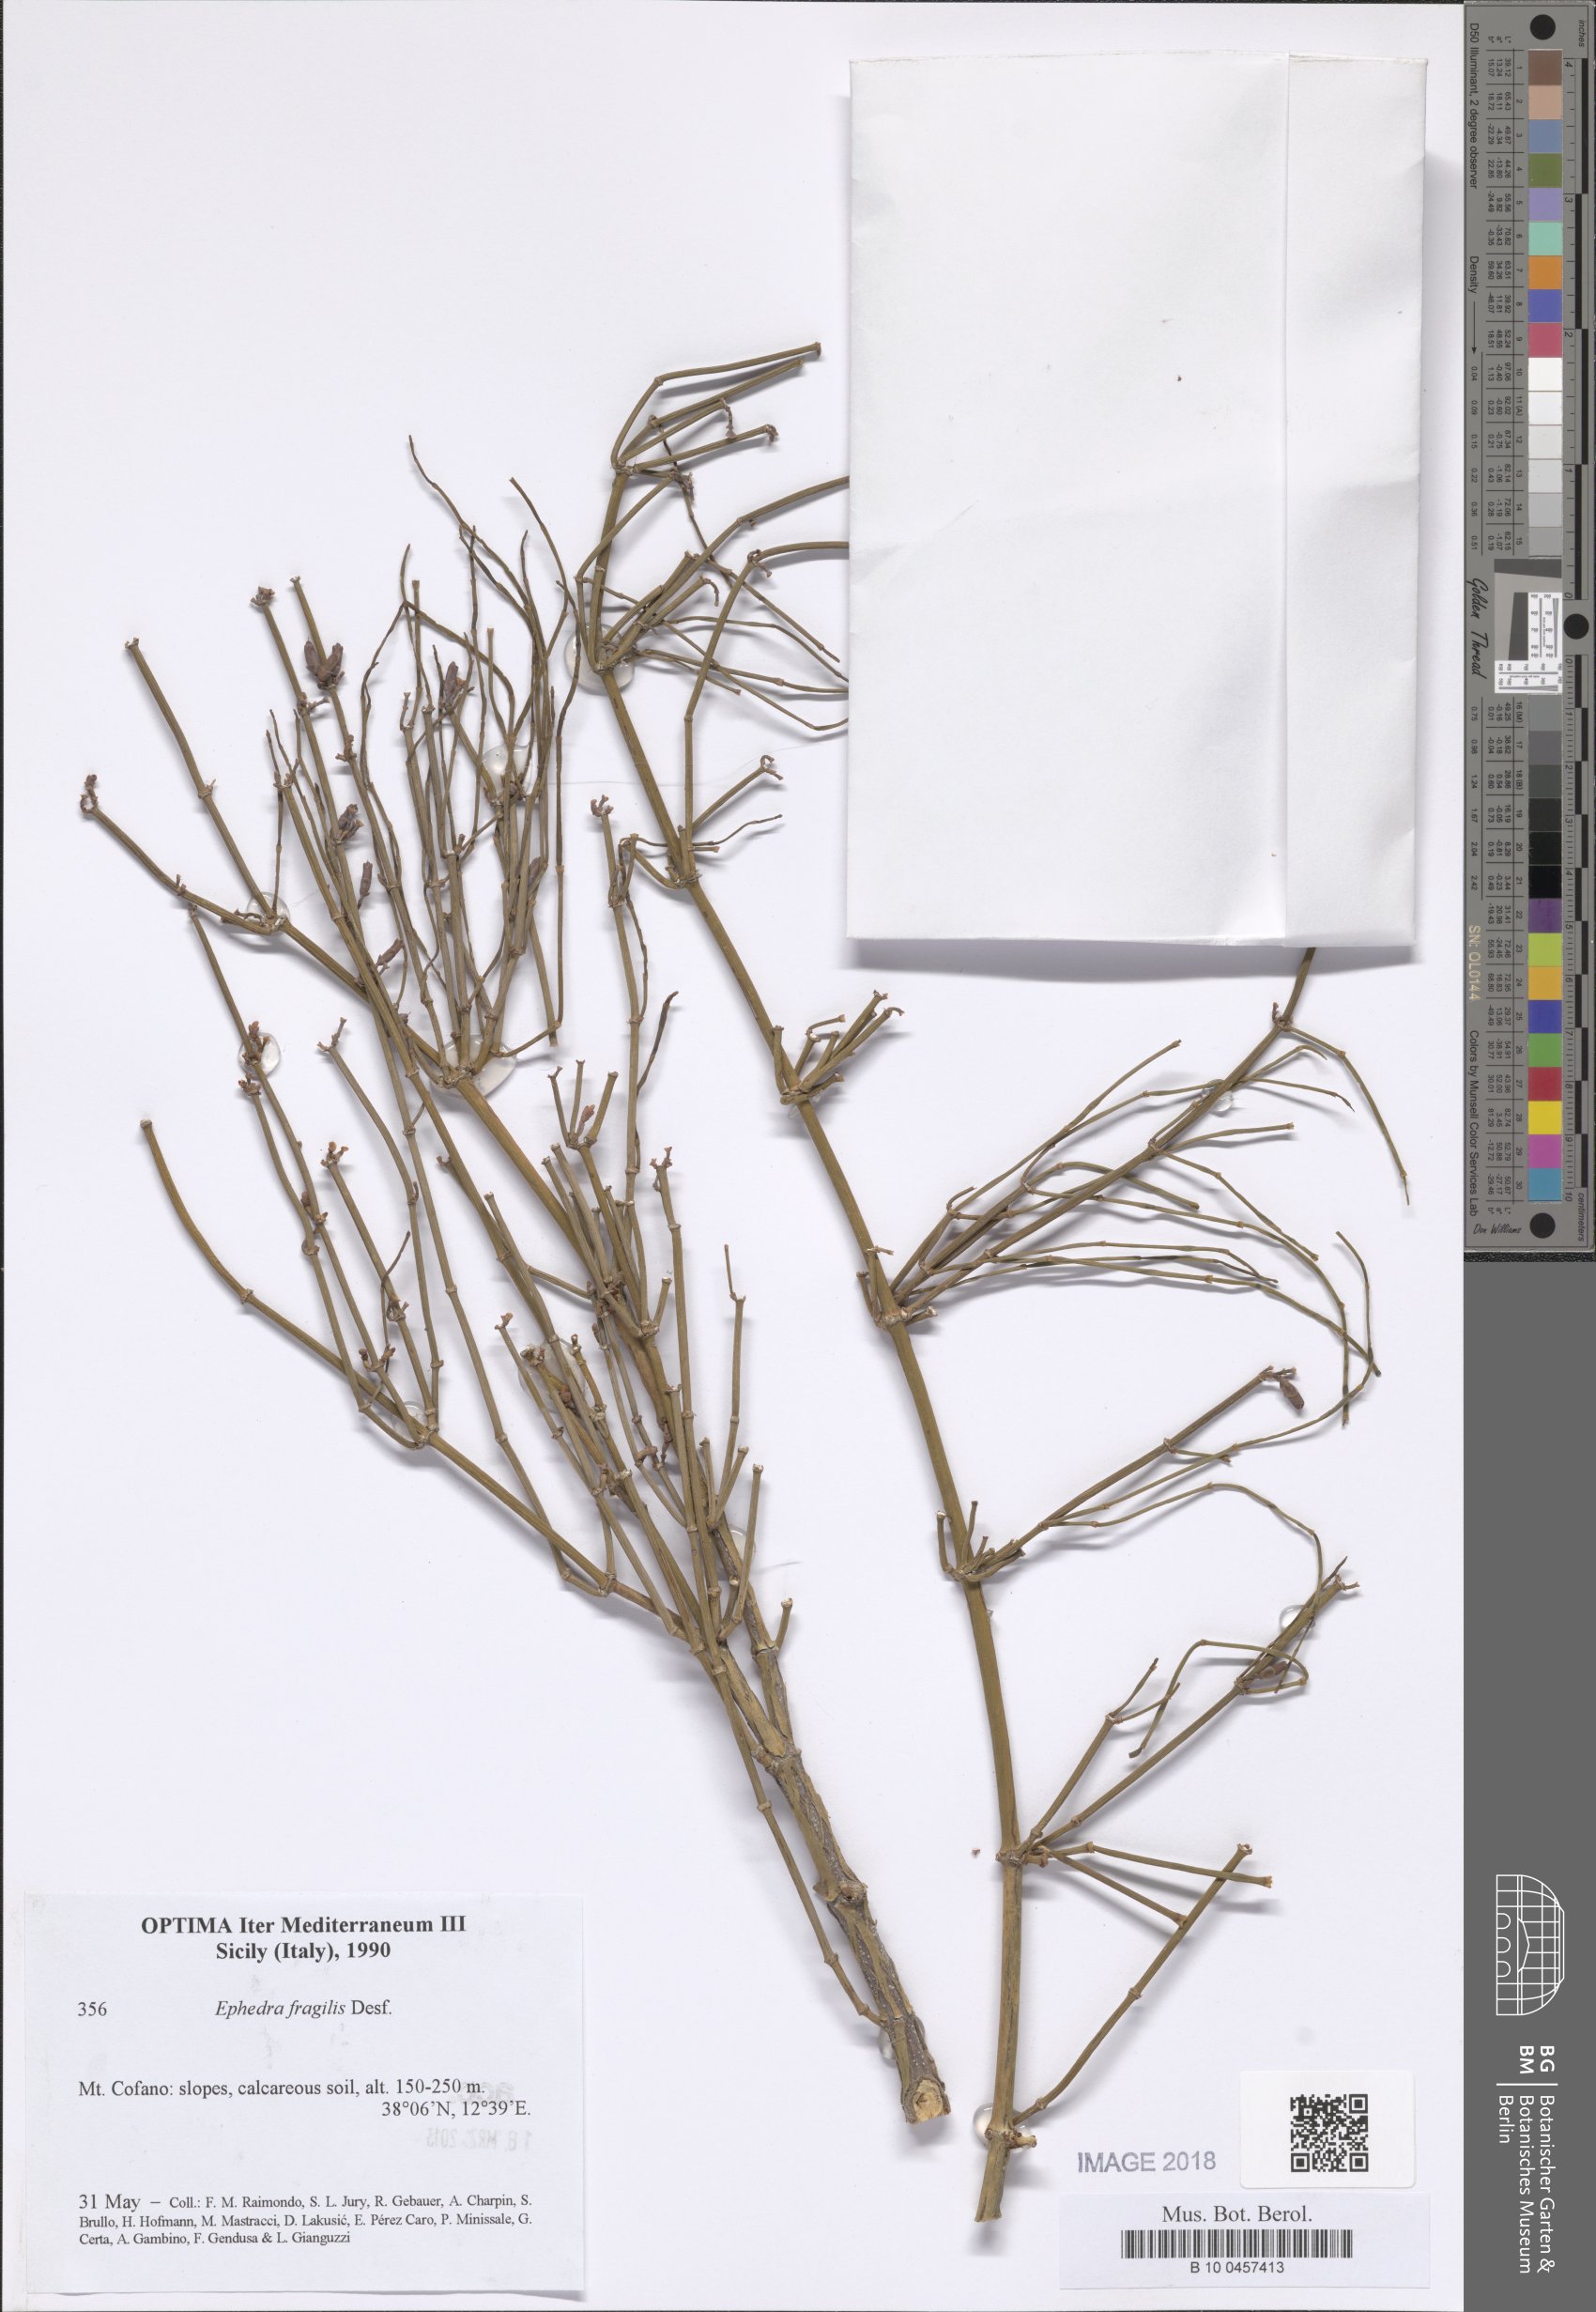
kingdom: Plantae
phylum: Tracheophyta
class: Gnetopsida
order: Ephedrales
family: Ephedraceae
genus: Ephedra
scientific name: Ephedra fragilis
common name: Joint pine
